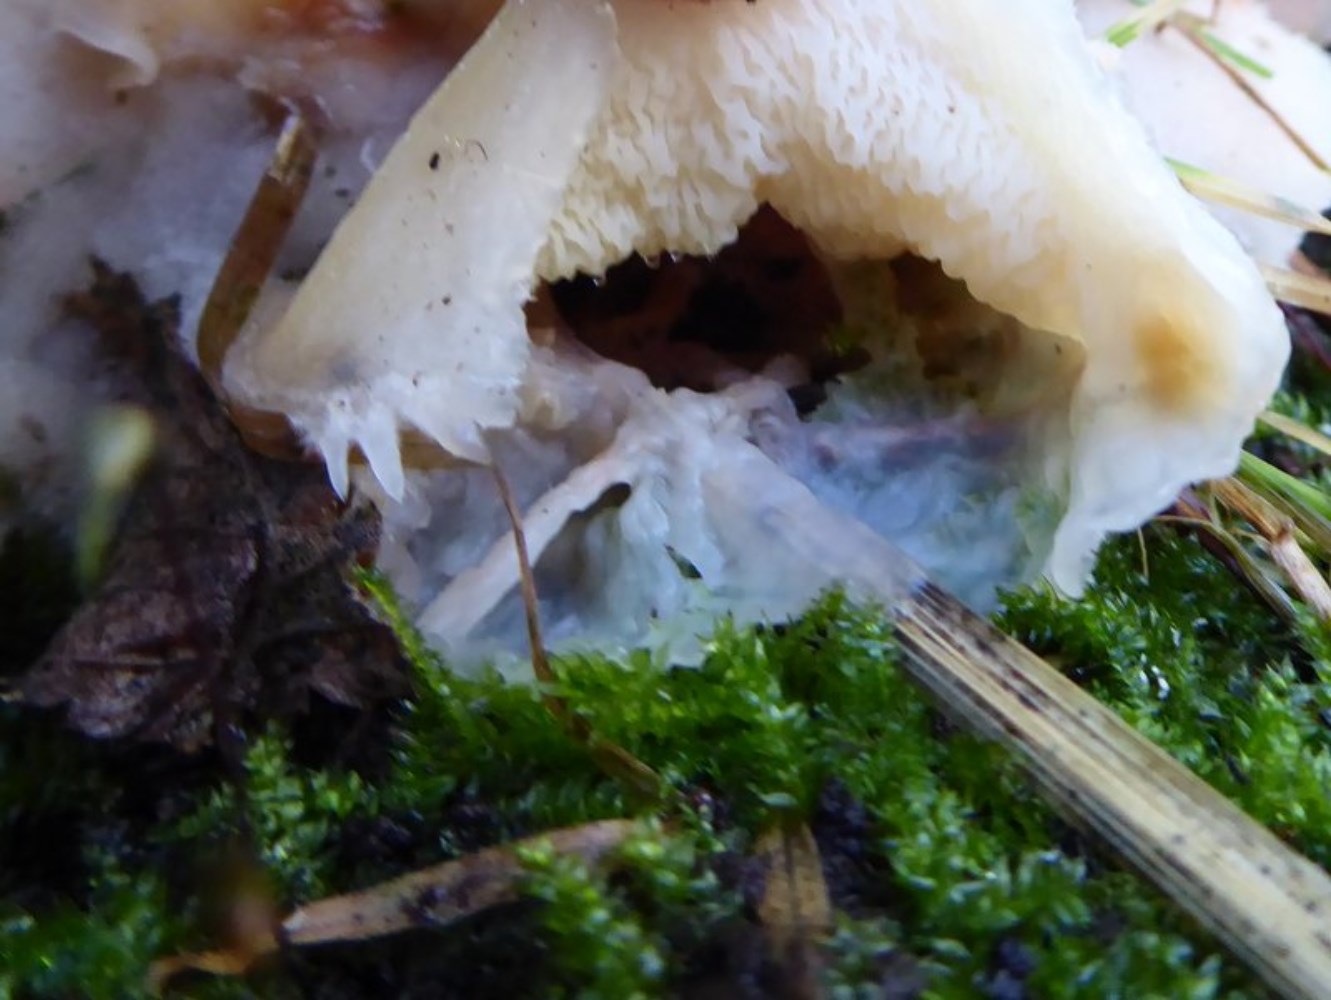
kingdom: Fungi
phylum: Basidiomycota
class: Agaricomycetes
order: Polyporales
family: Meruliaceae
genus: Phlebia
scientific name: Phlebia tremellosa
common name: bævrende åresvamp
